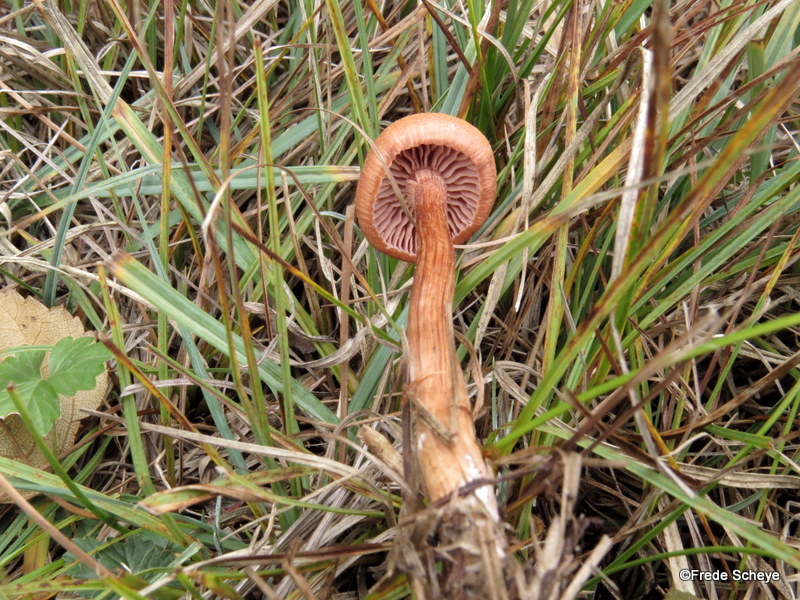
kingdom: Fungi
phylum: Basidiomycota
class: Agaricomycetes
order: Agaricales
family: Hydnangiaceae
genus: Laccaria
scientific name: Laccaria laccata
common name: rød ametysthat
